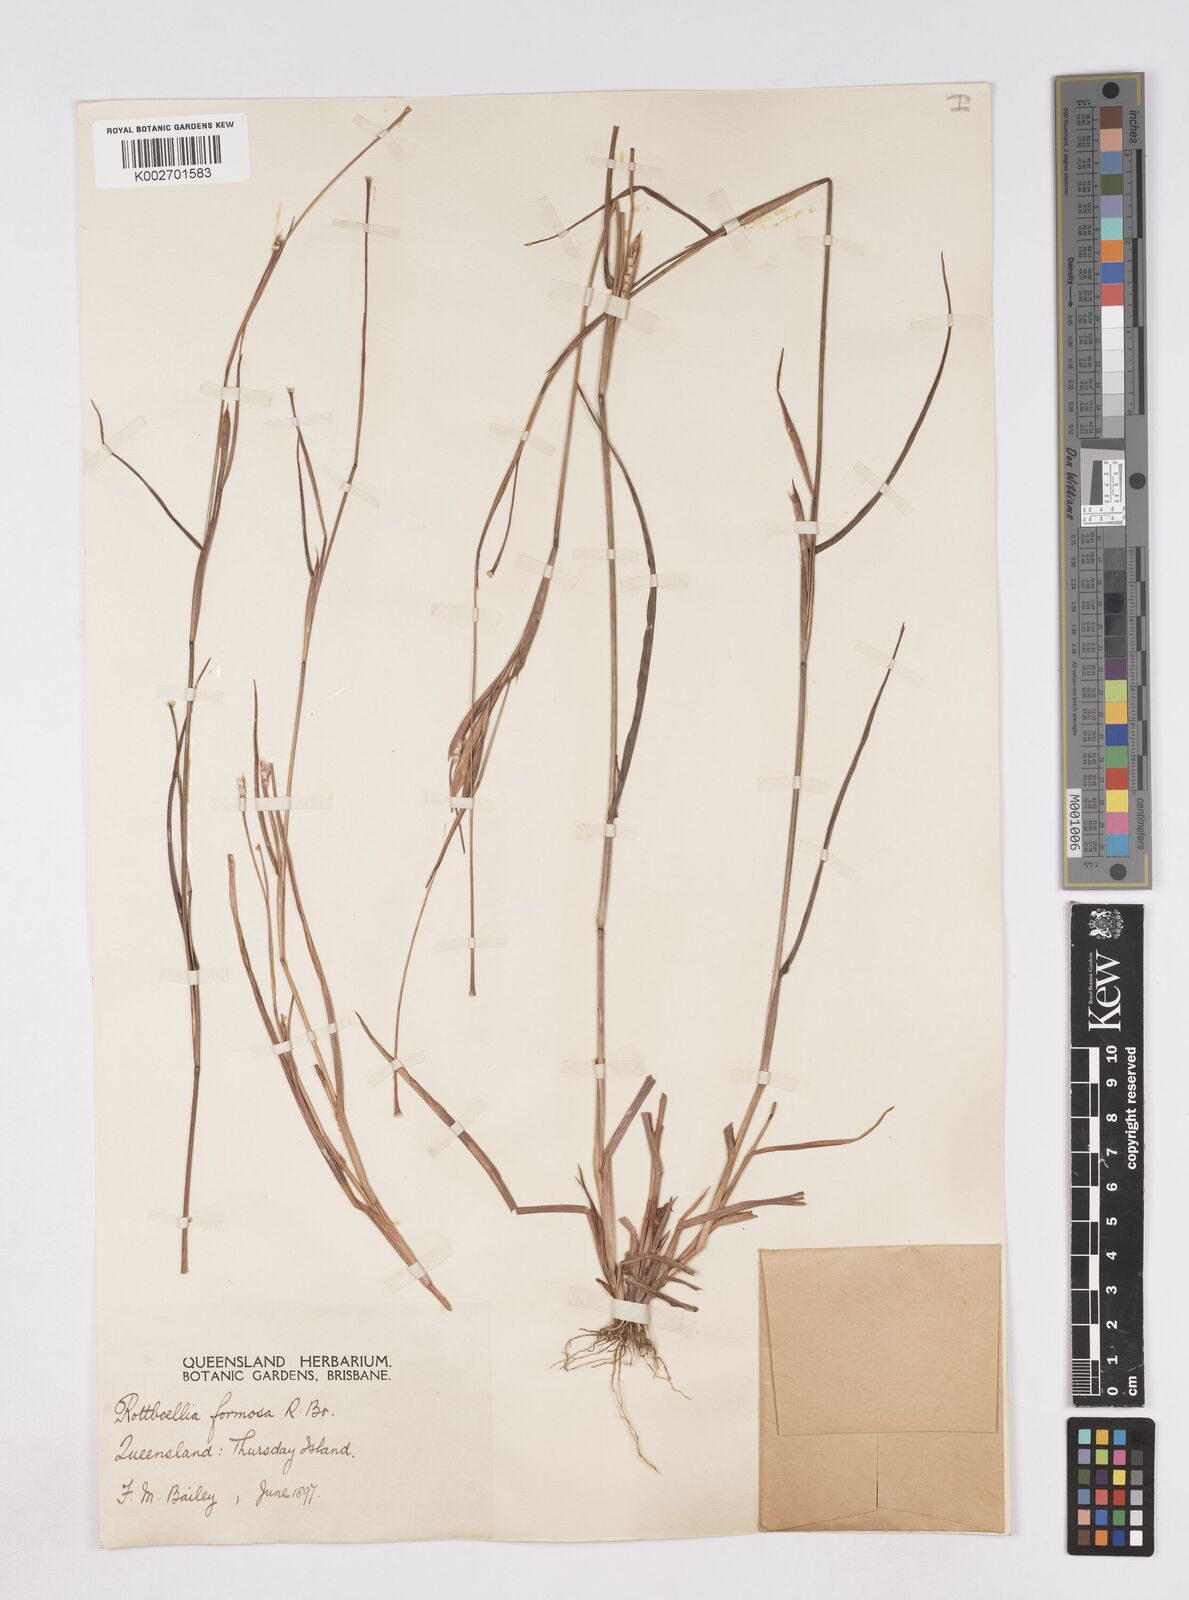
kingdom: Plantae
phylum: Tracheophyta
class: Liliopsida
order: Poales
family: Poaceae
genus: Heteropholis
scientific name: Heteropholis
